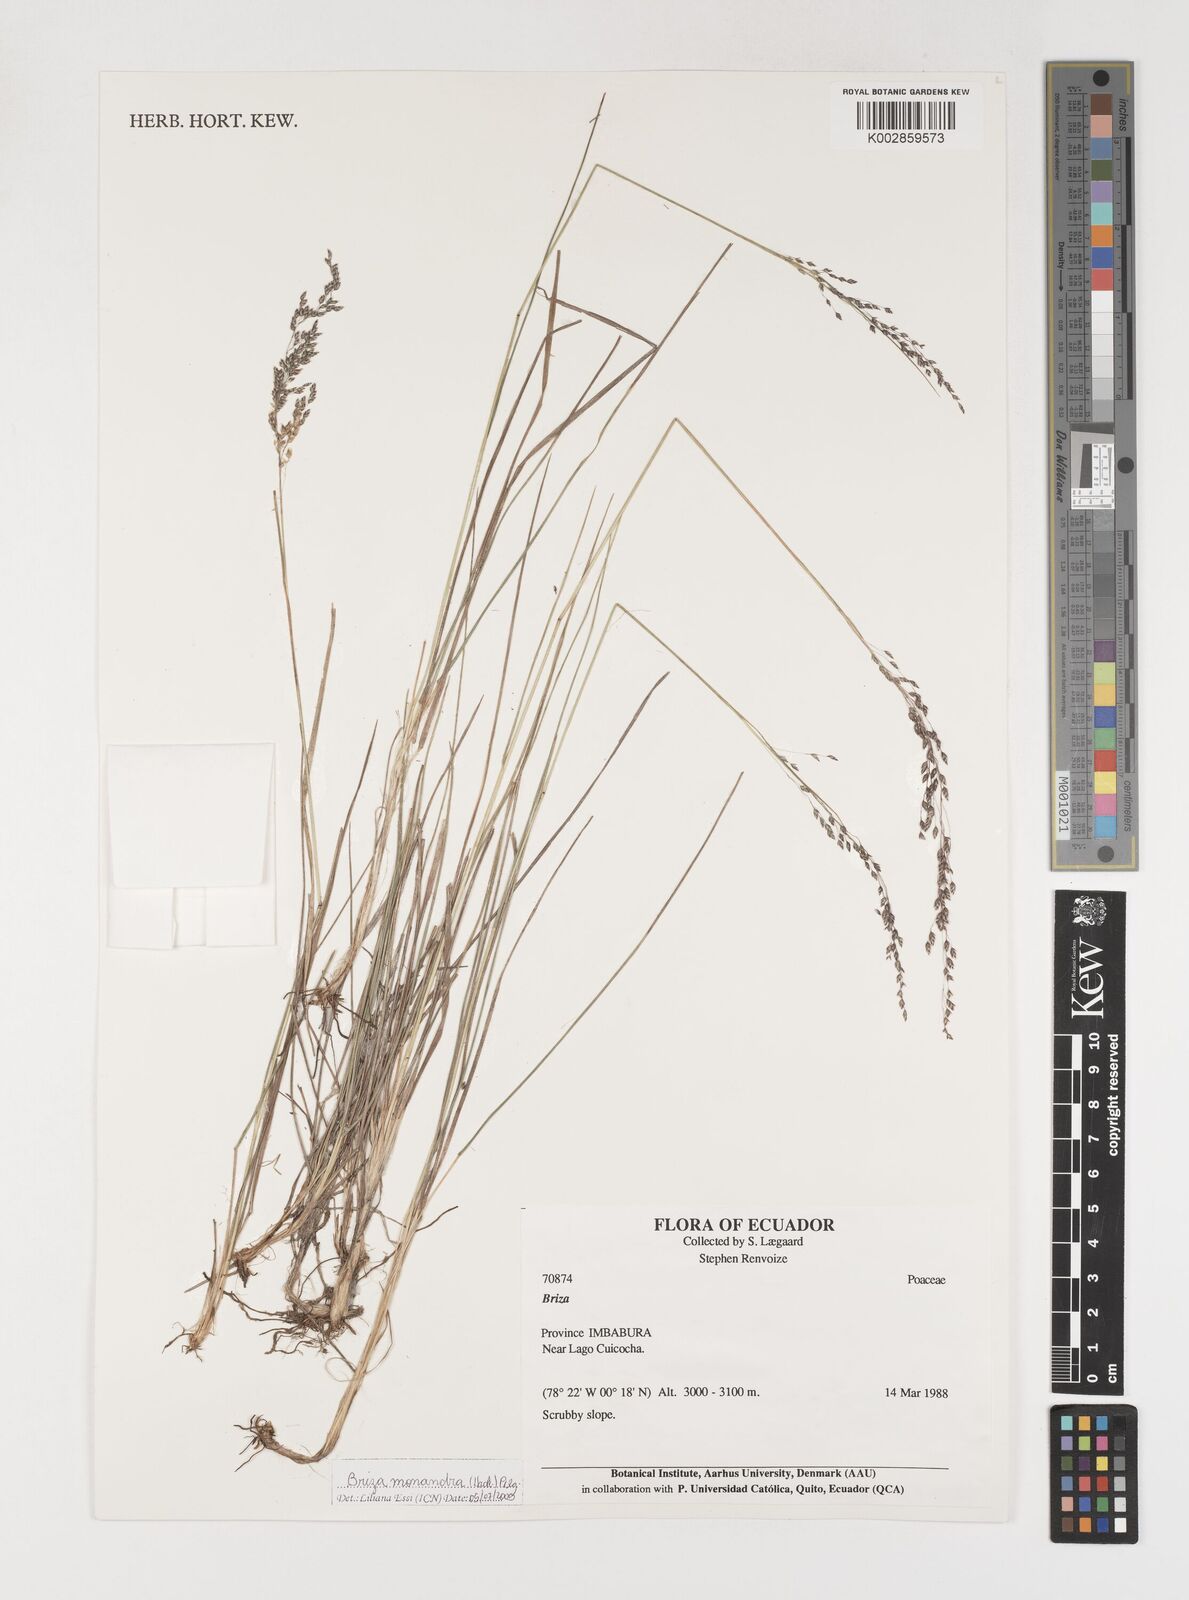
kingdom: Plantae
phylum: Tracheophyta
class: Liliopsida
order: Poales
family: Poaceae
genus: Poidium
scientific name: Poidium monandrum
